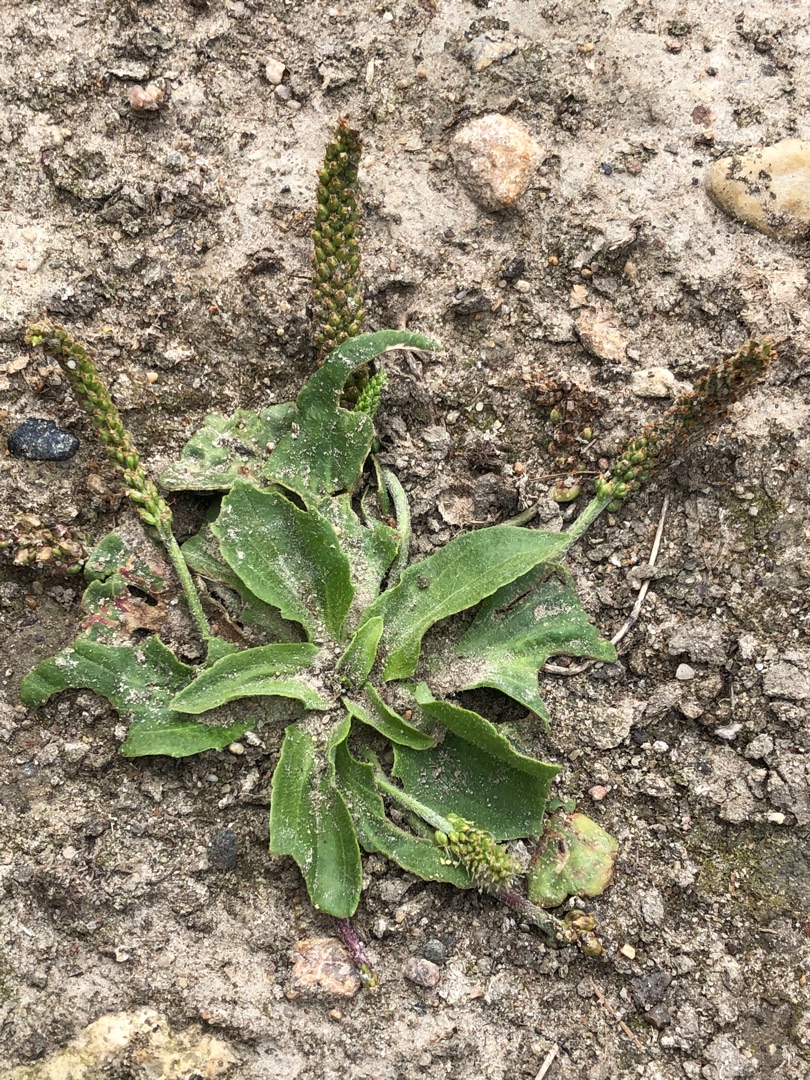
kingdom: Plantae
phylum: Tracheophyta
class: Magnoliopsida
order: Lamiales
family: Plantaginaceae
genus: Plantago
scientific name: Plantago major
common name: Glat vejbred
